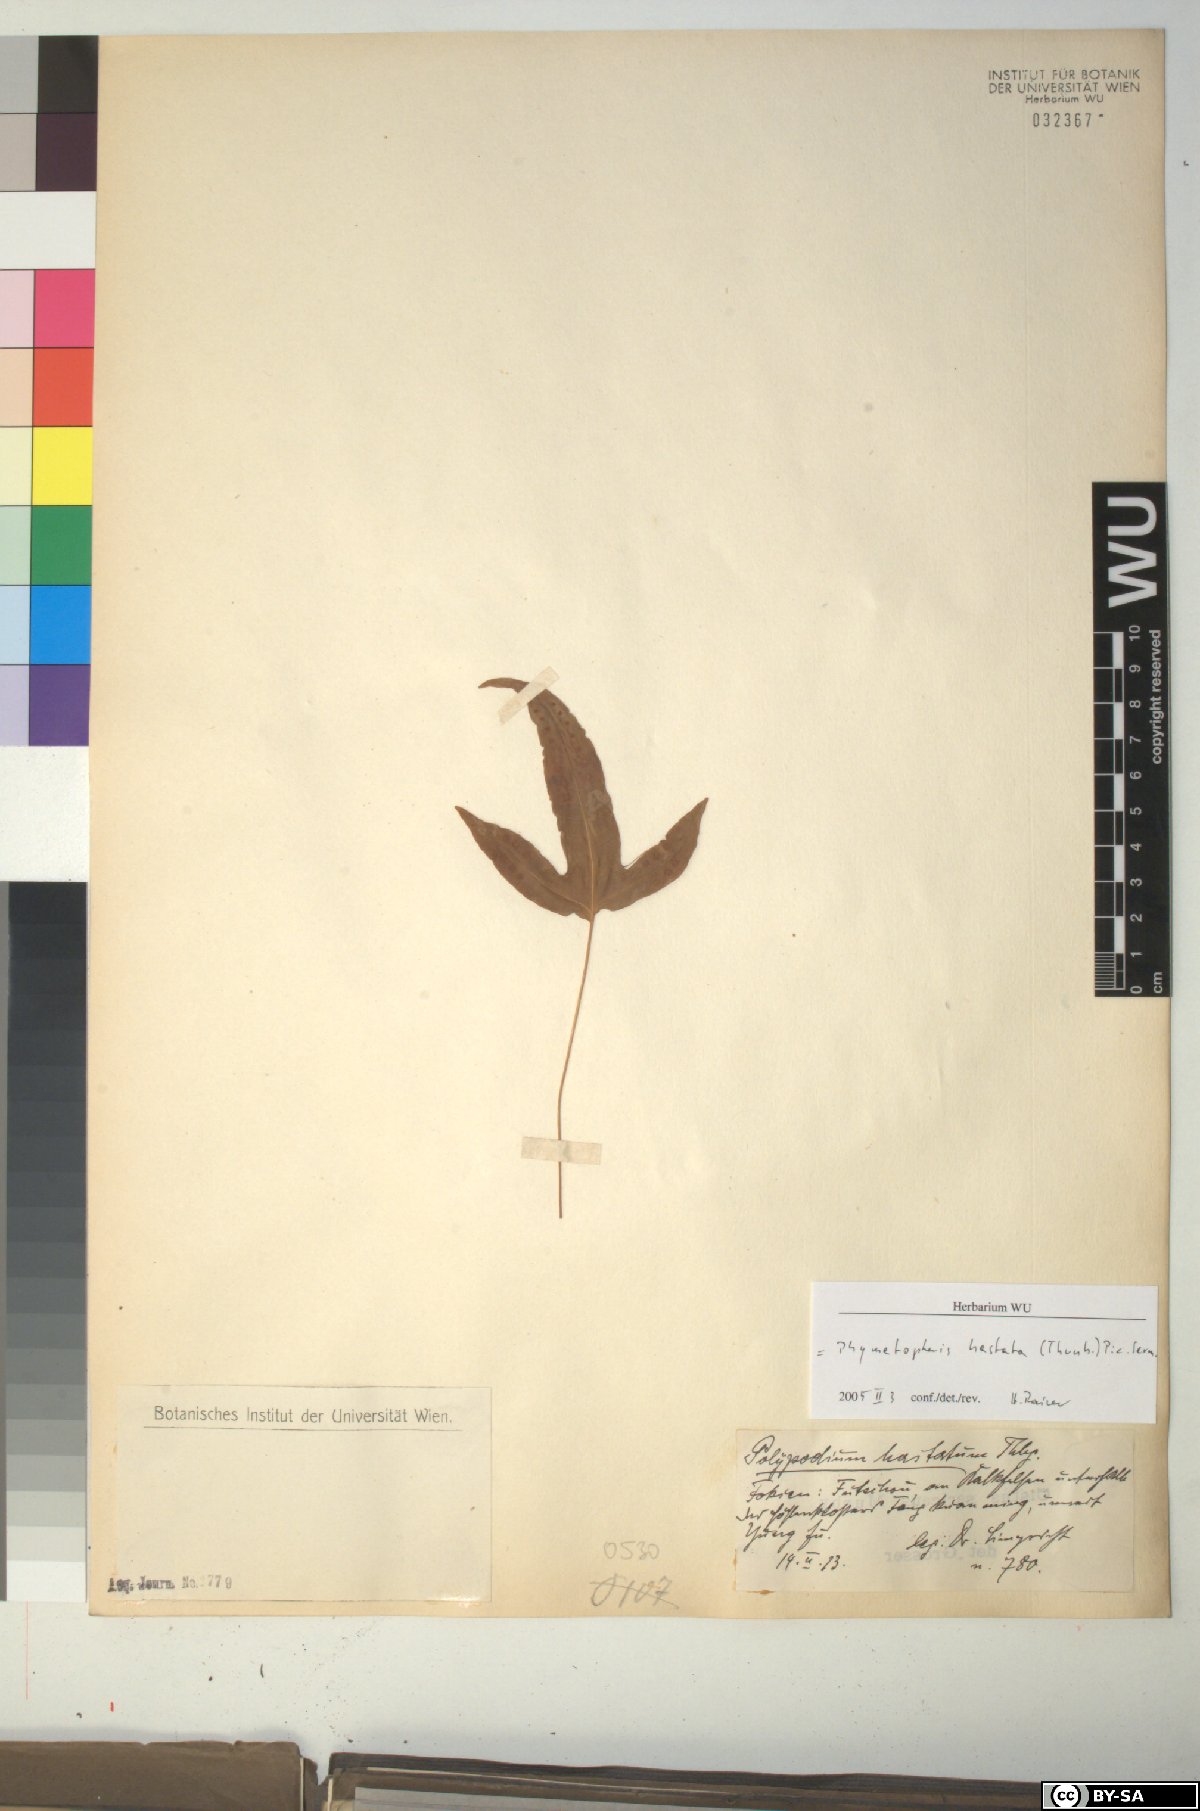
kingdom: Plantae
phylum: Tracheophyta
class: Polypodiopsida
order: Polypodiales
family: Polypodiaceae
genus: Selliguea
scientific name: Selliguea hastata
